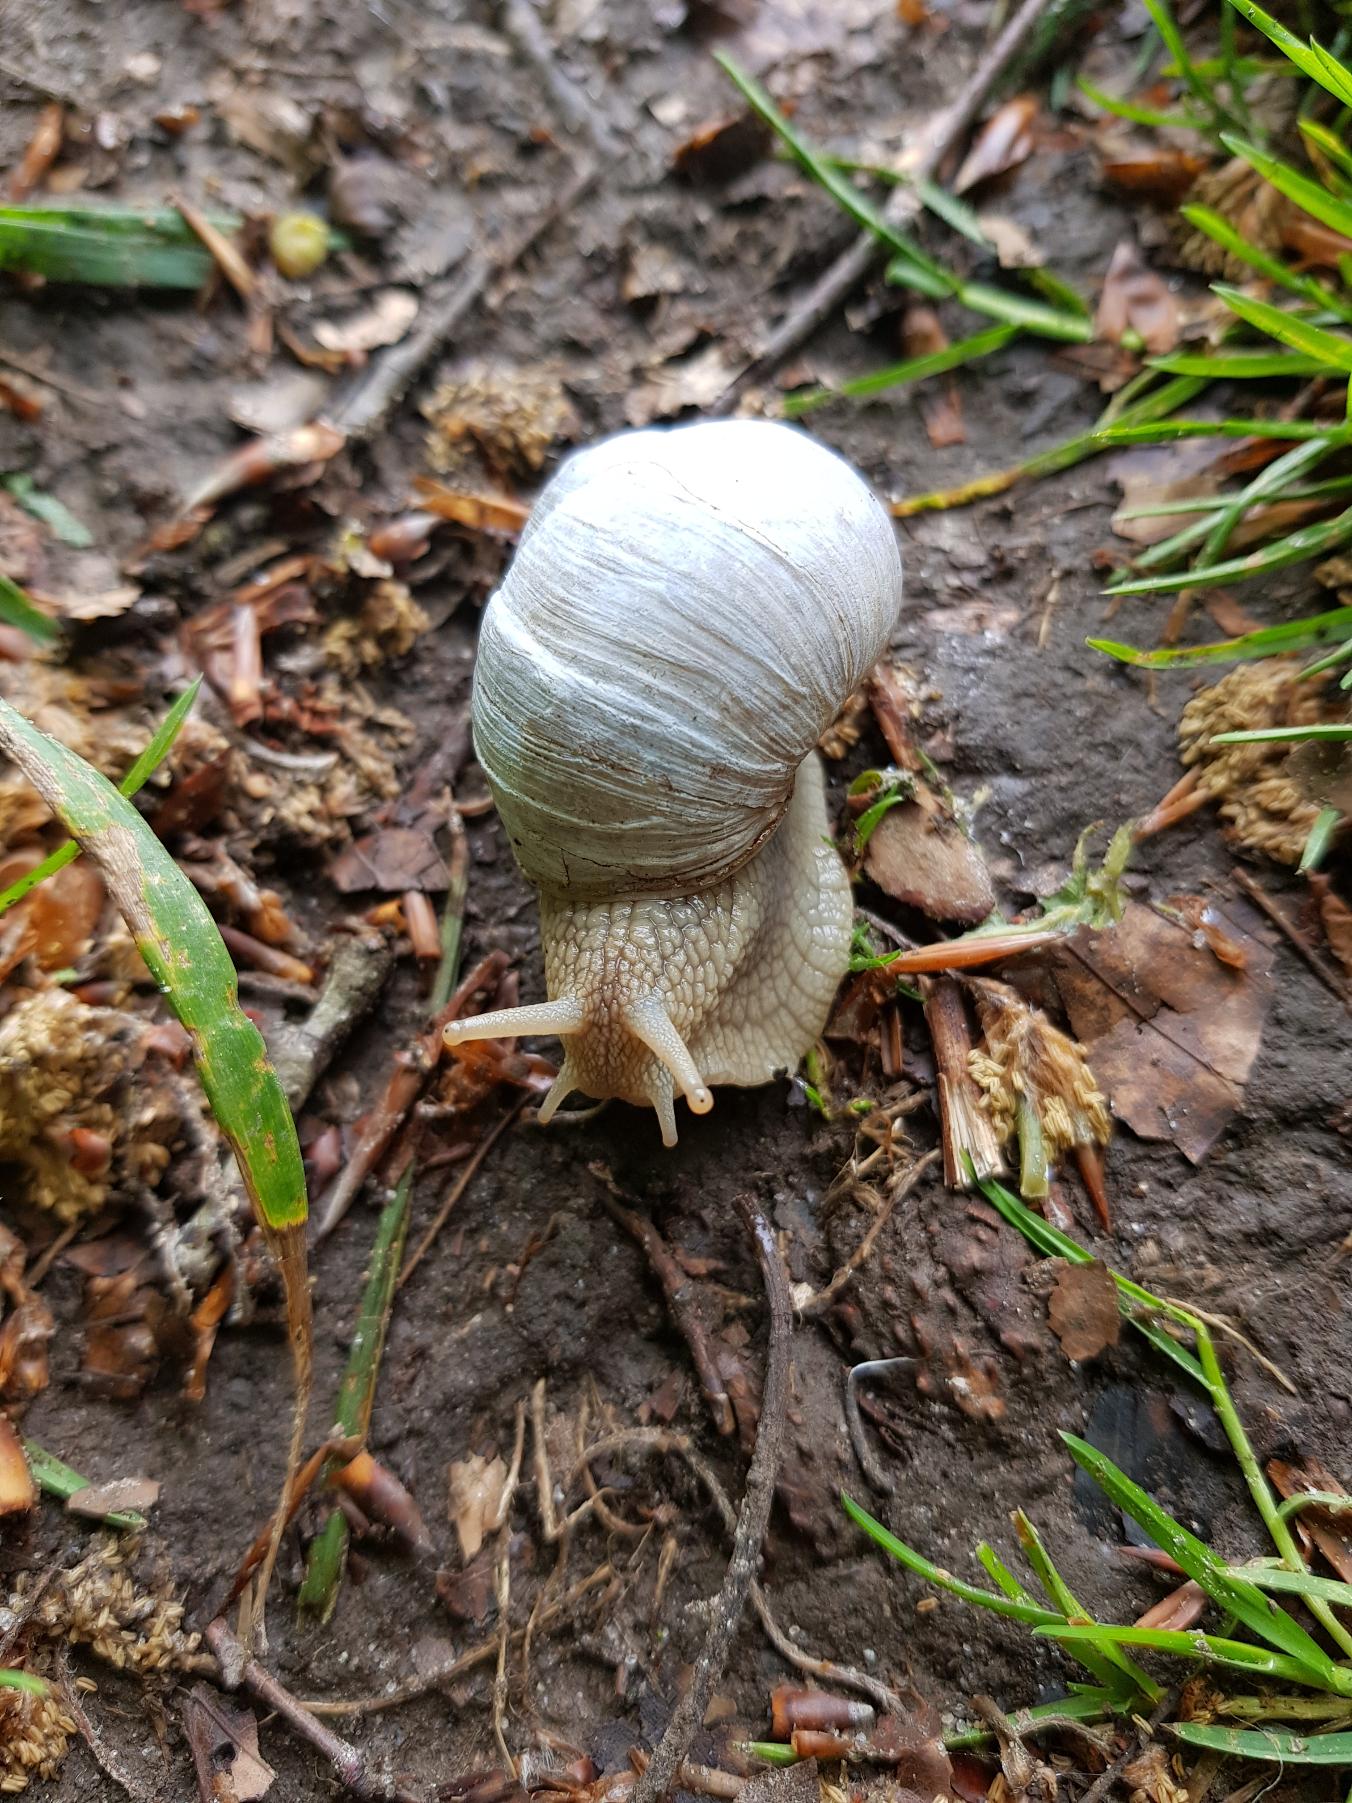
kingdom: Animalia
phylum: Mollusca
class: Gastropoda
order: Stylommatophora
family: Helicidae
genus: Helix
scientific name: Helix pomatia
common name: Vinbjergsnegl
